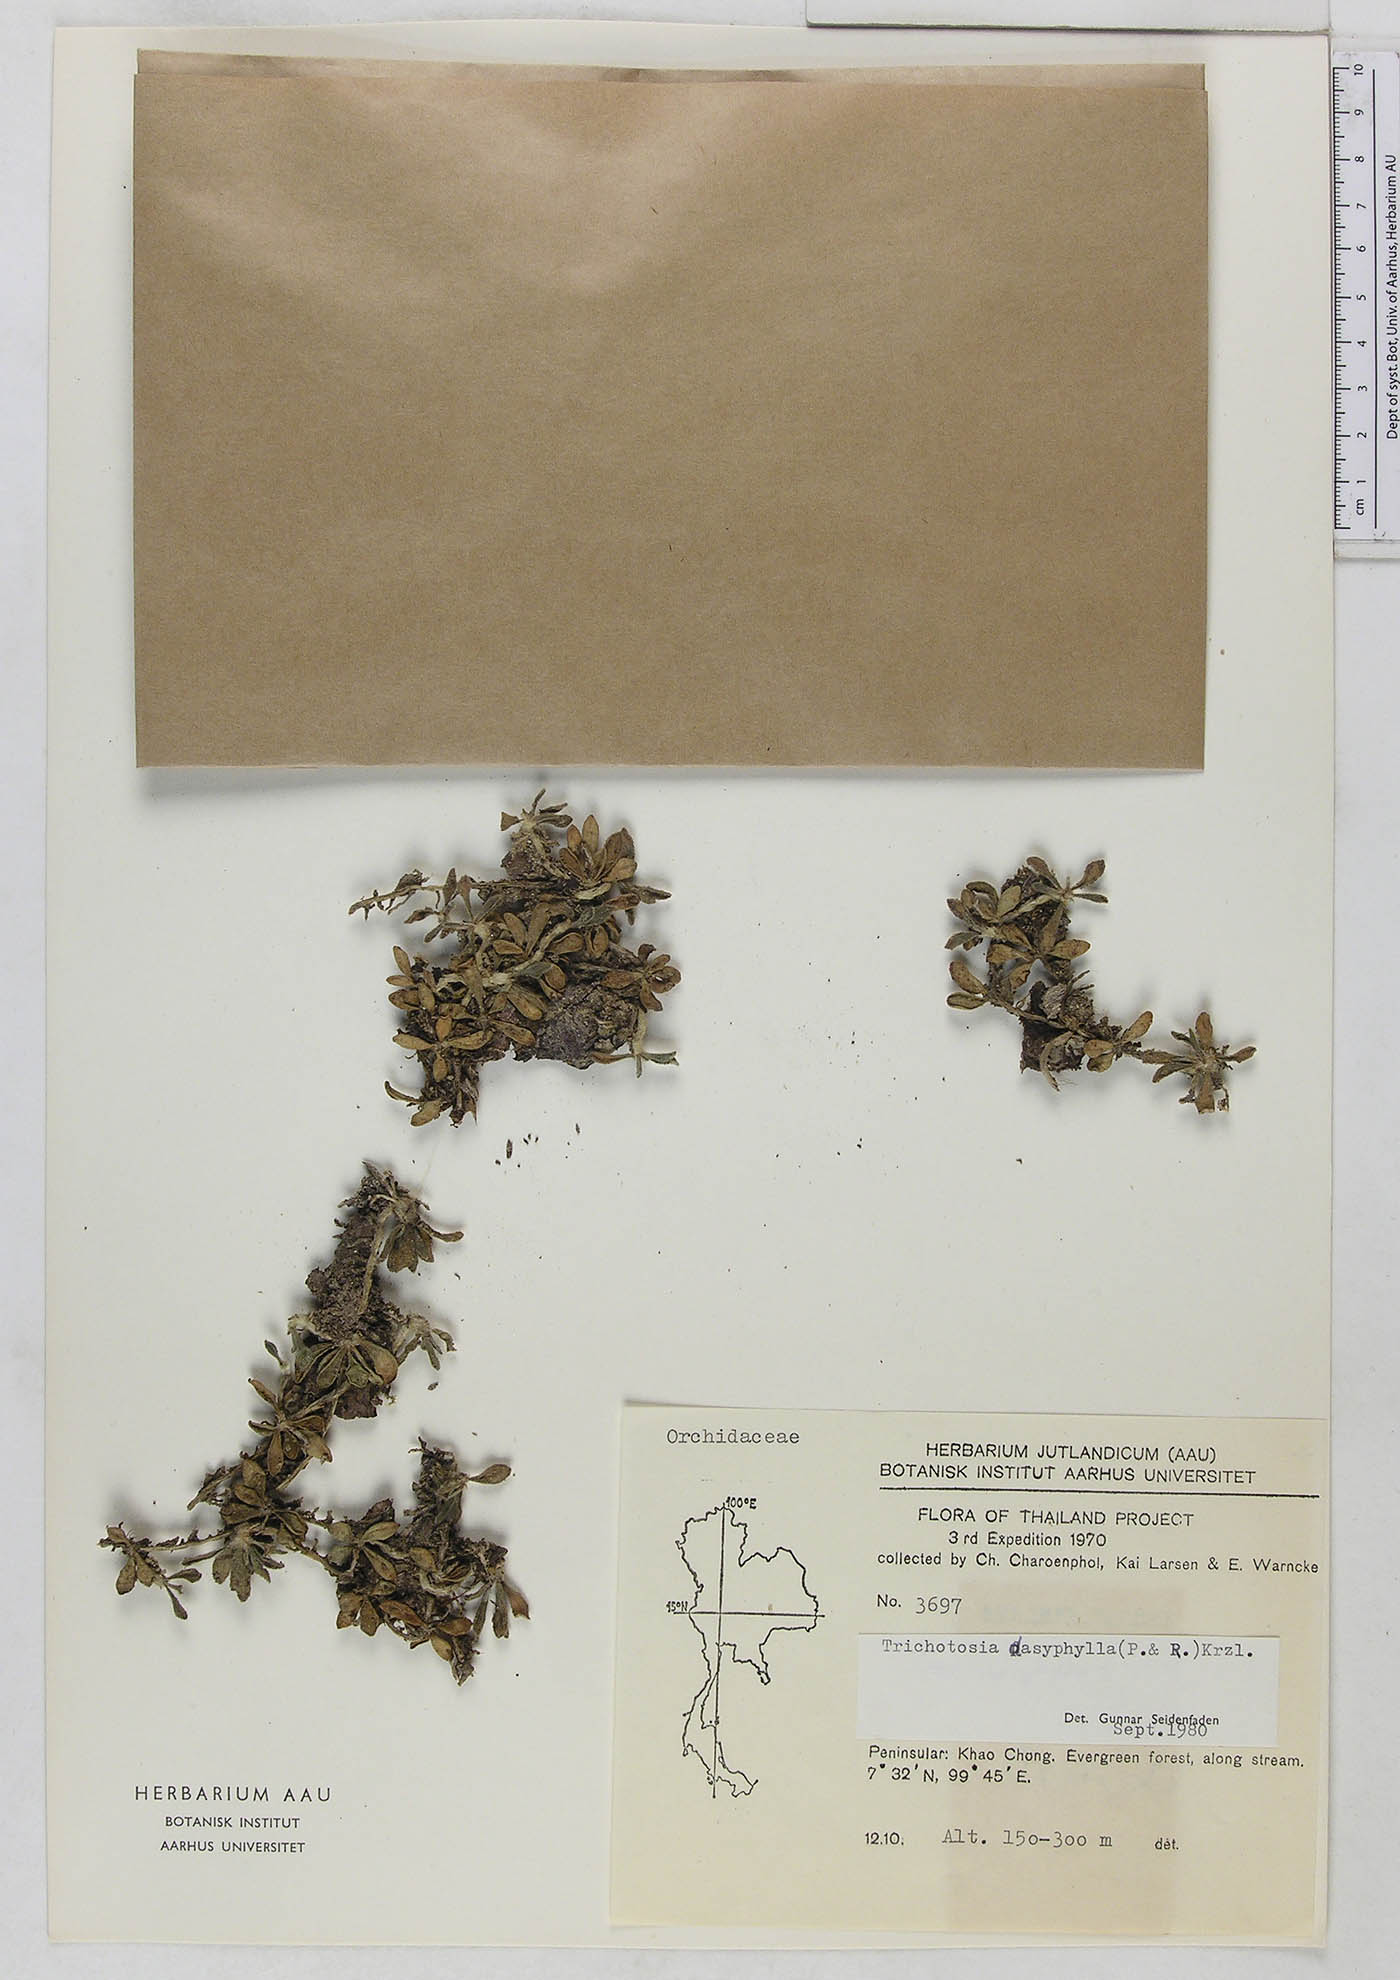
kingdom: Plantae
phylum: Tracheophyta
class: Liliopsida
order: Asparagales
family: Orchidaceae
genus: Trichotosia
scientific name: Trichotosia dasyphylla
